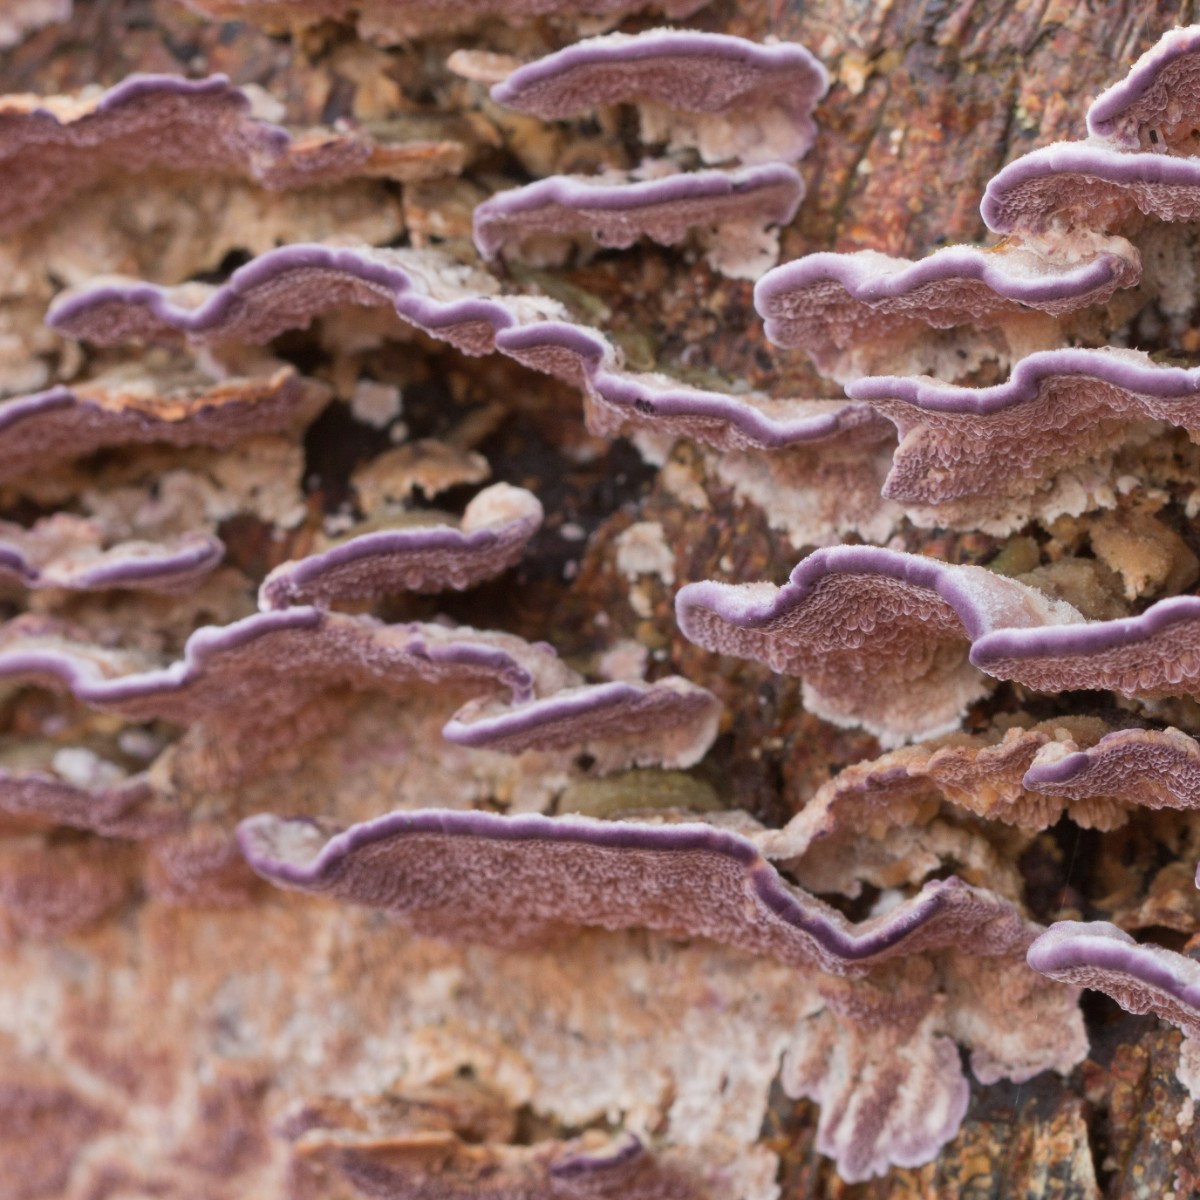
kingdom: Fungi
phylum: Basidiomycota
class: Agaricomycetes
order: Hymenochaetales
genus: Trichaptum
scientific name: Trichaptum abietinum
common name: almindelig violporesvamp
